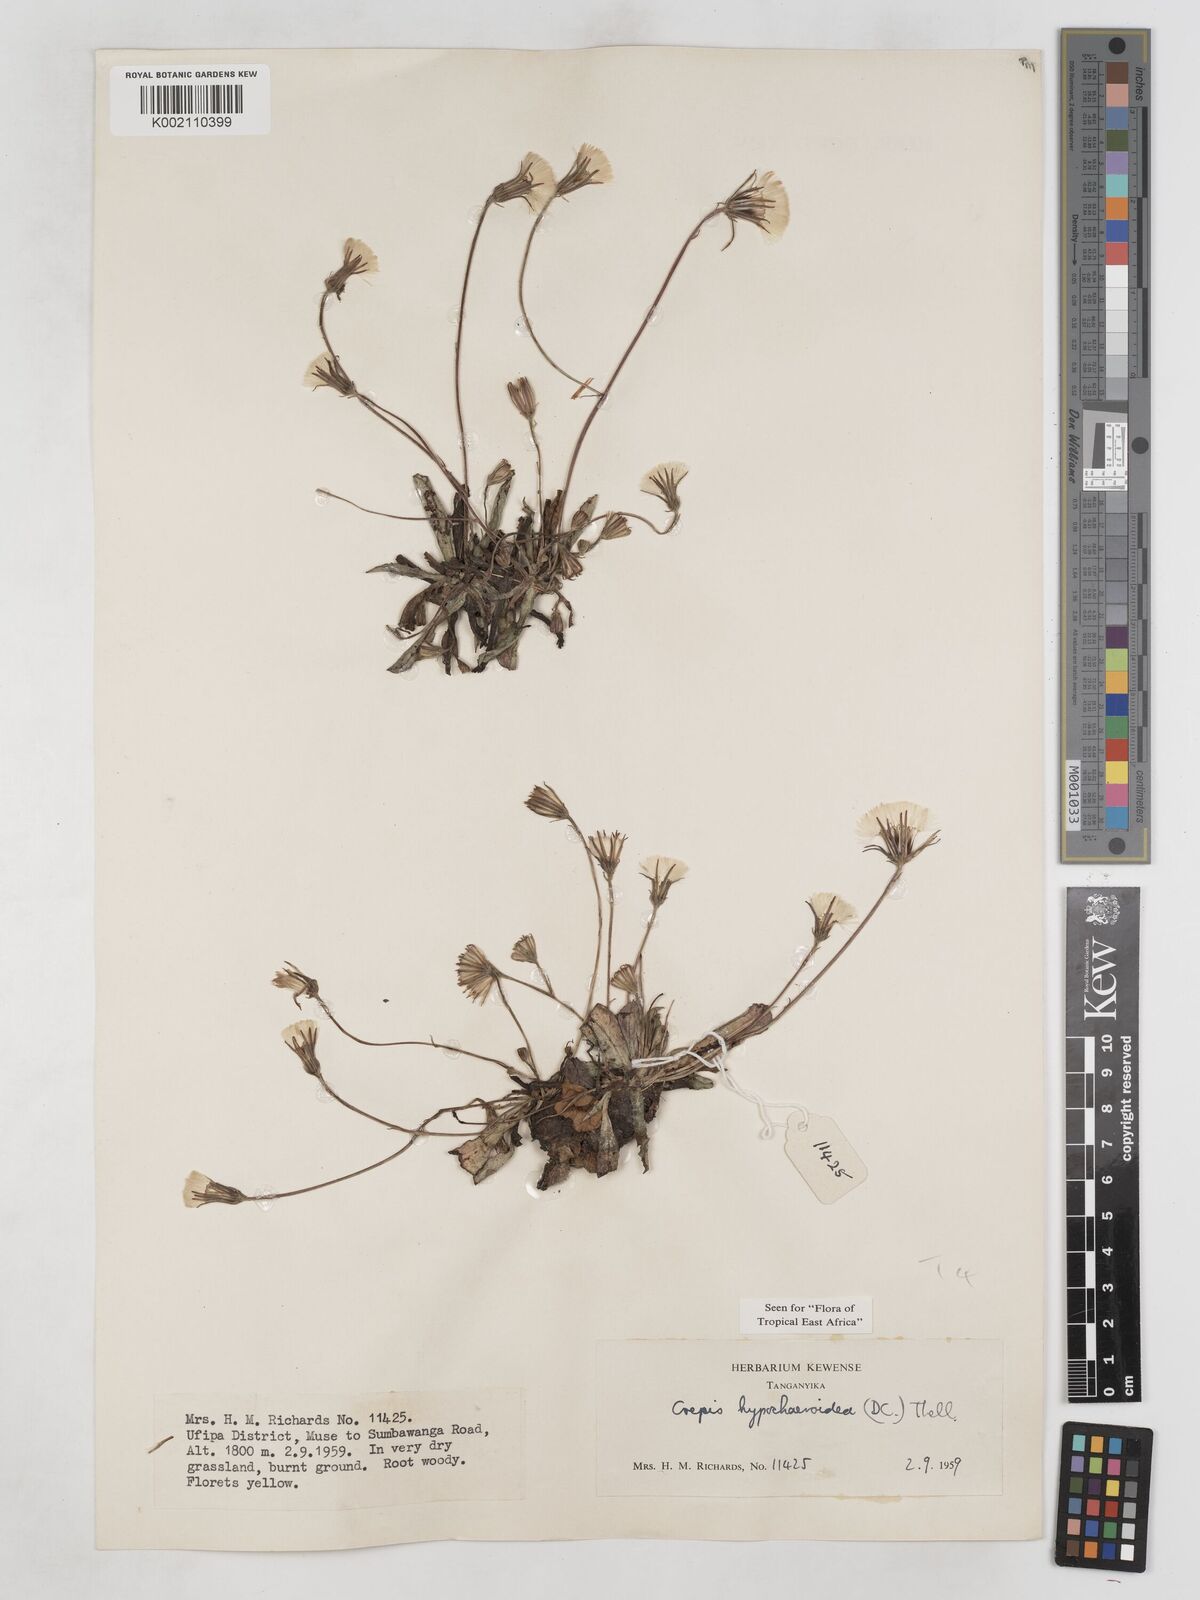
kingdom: Plantae
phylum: Tracheophyta
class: Magnoliopsida
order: Asterales
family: Asteraceae
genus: Crepis
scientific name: Crepis hypochoeridea
